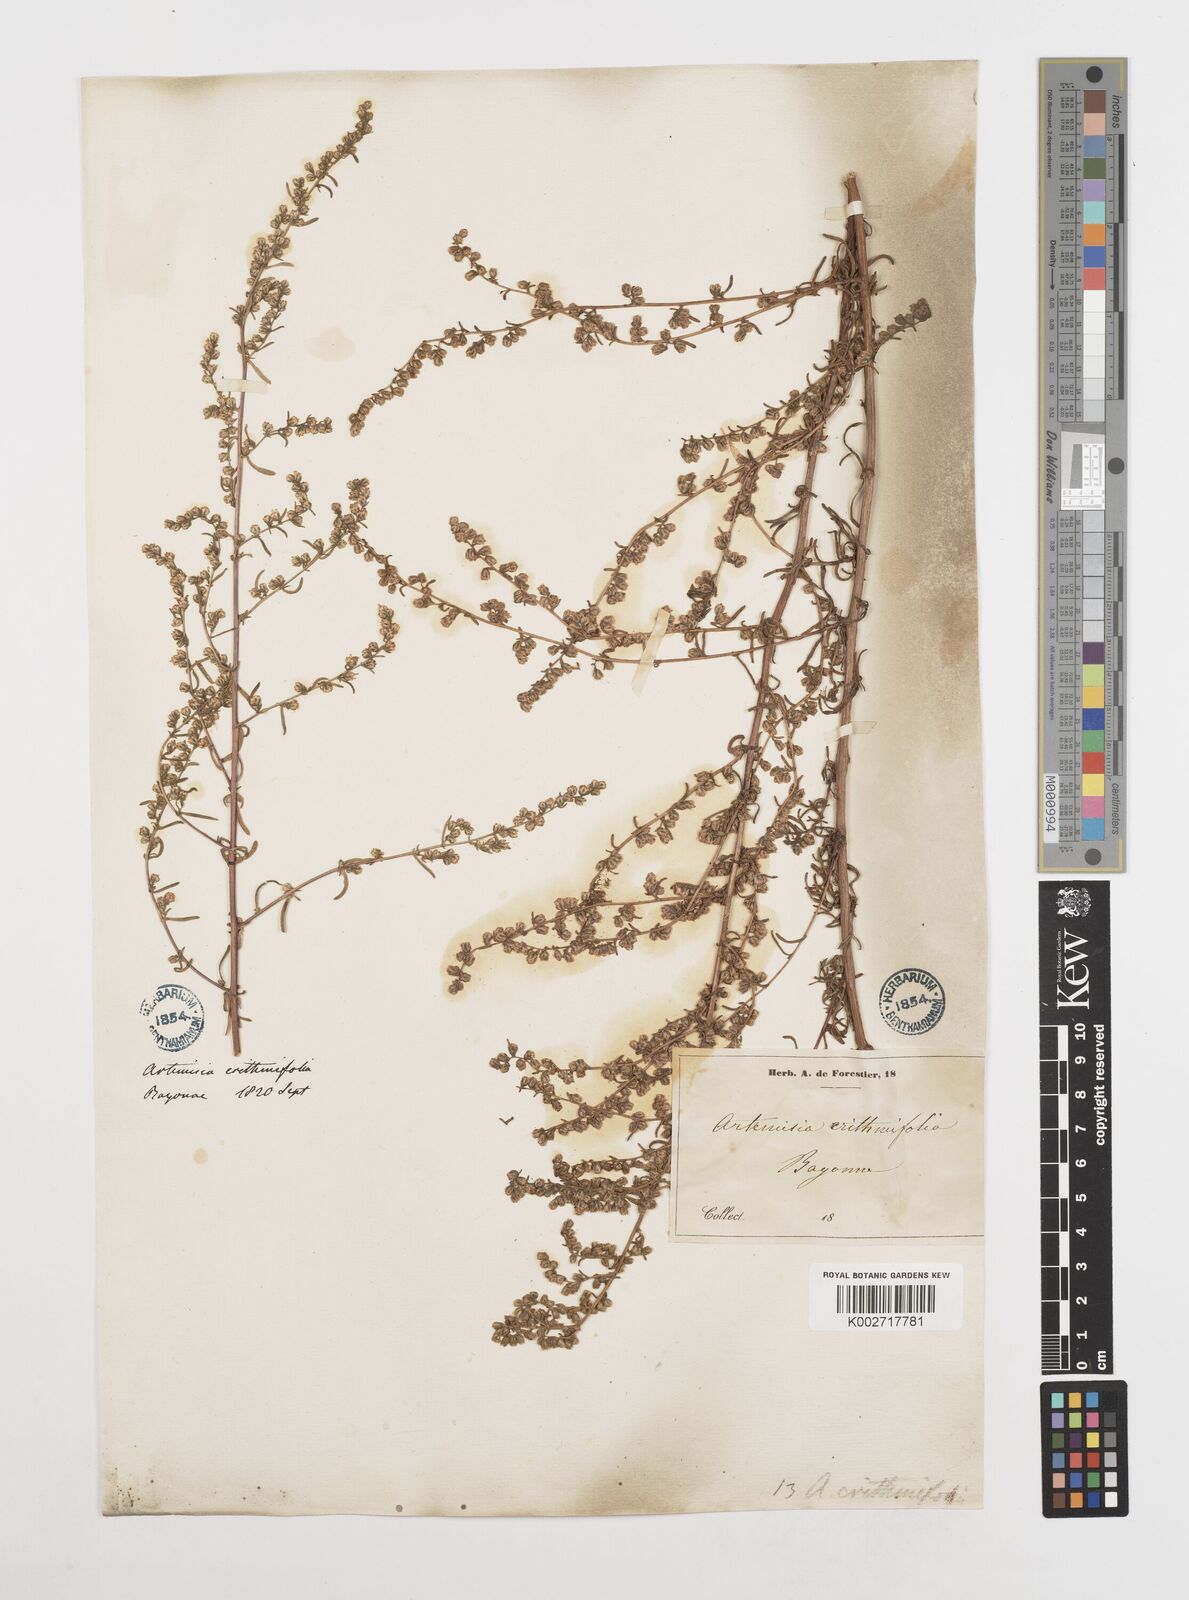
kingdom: Plantae
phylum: Tracheophyta
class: Magnoliopsida
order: Asterales
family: Asteraceae
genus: Artemisia
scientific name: Artemisia campestris
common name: Field wormwood
